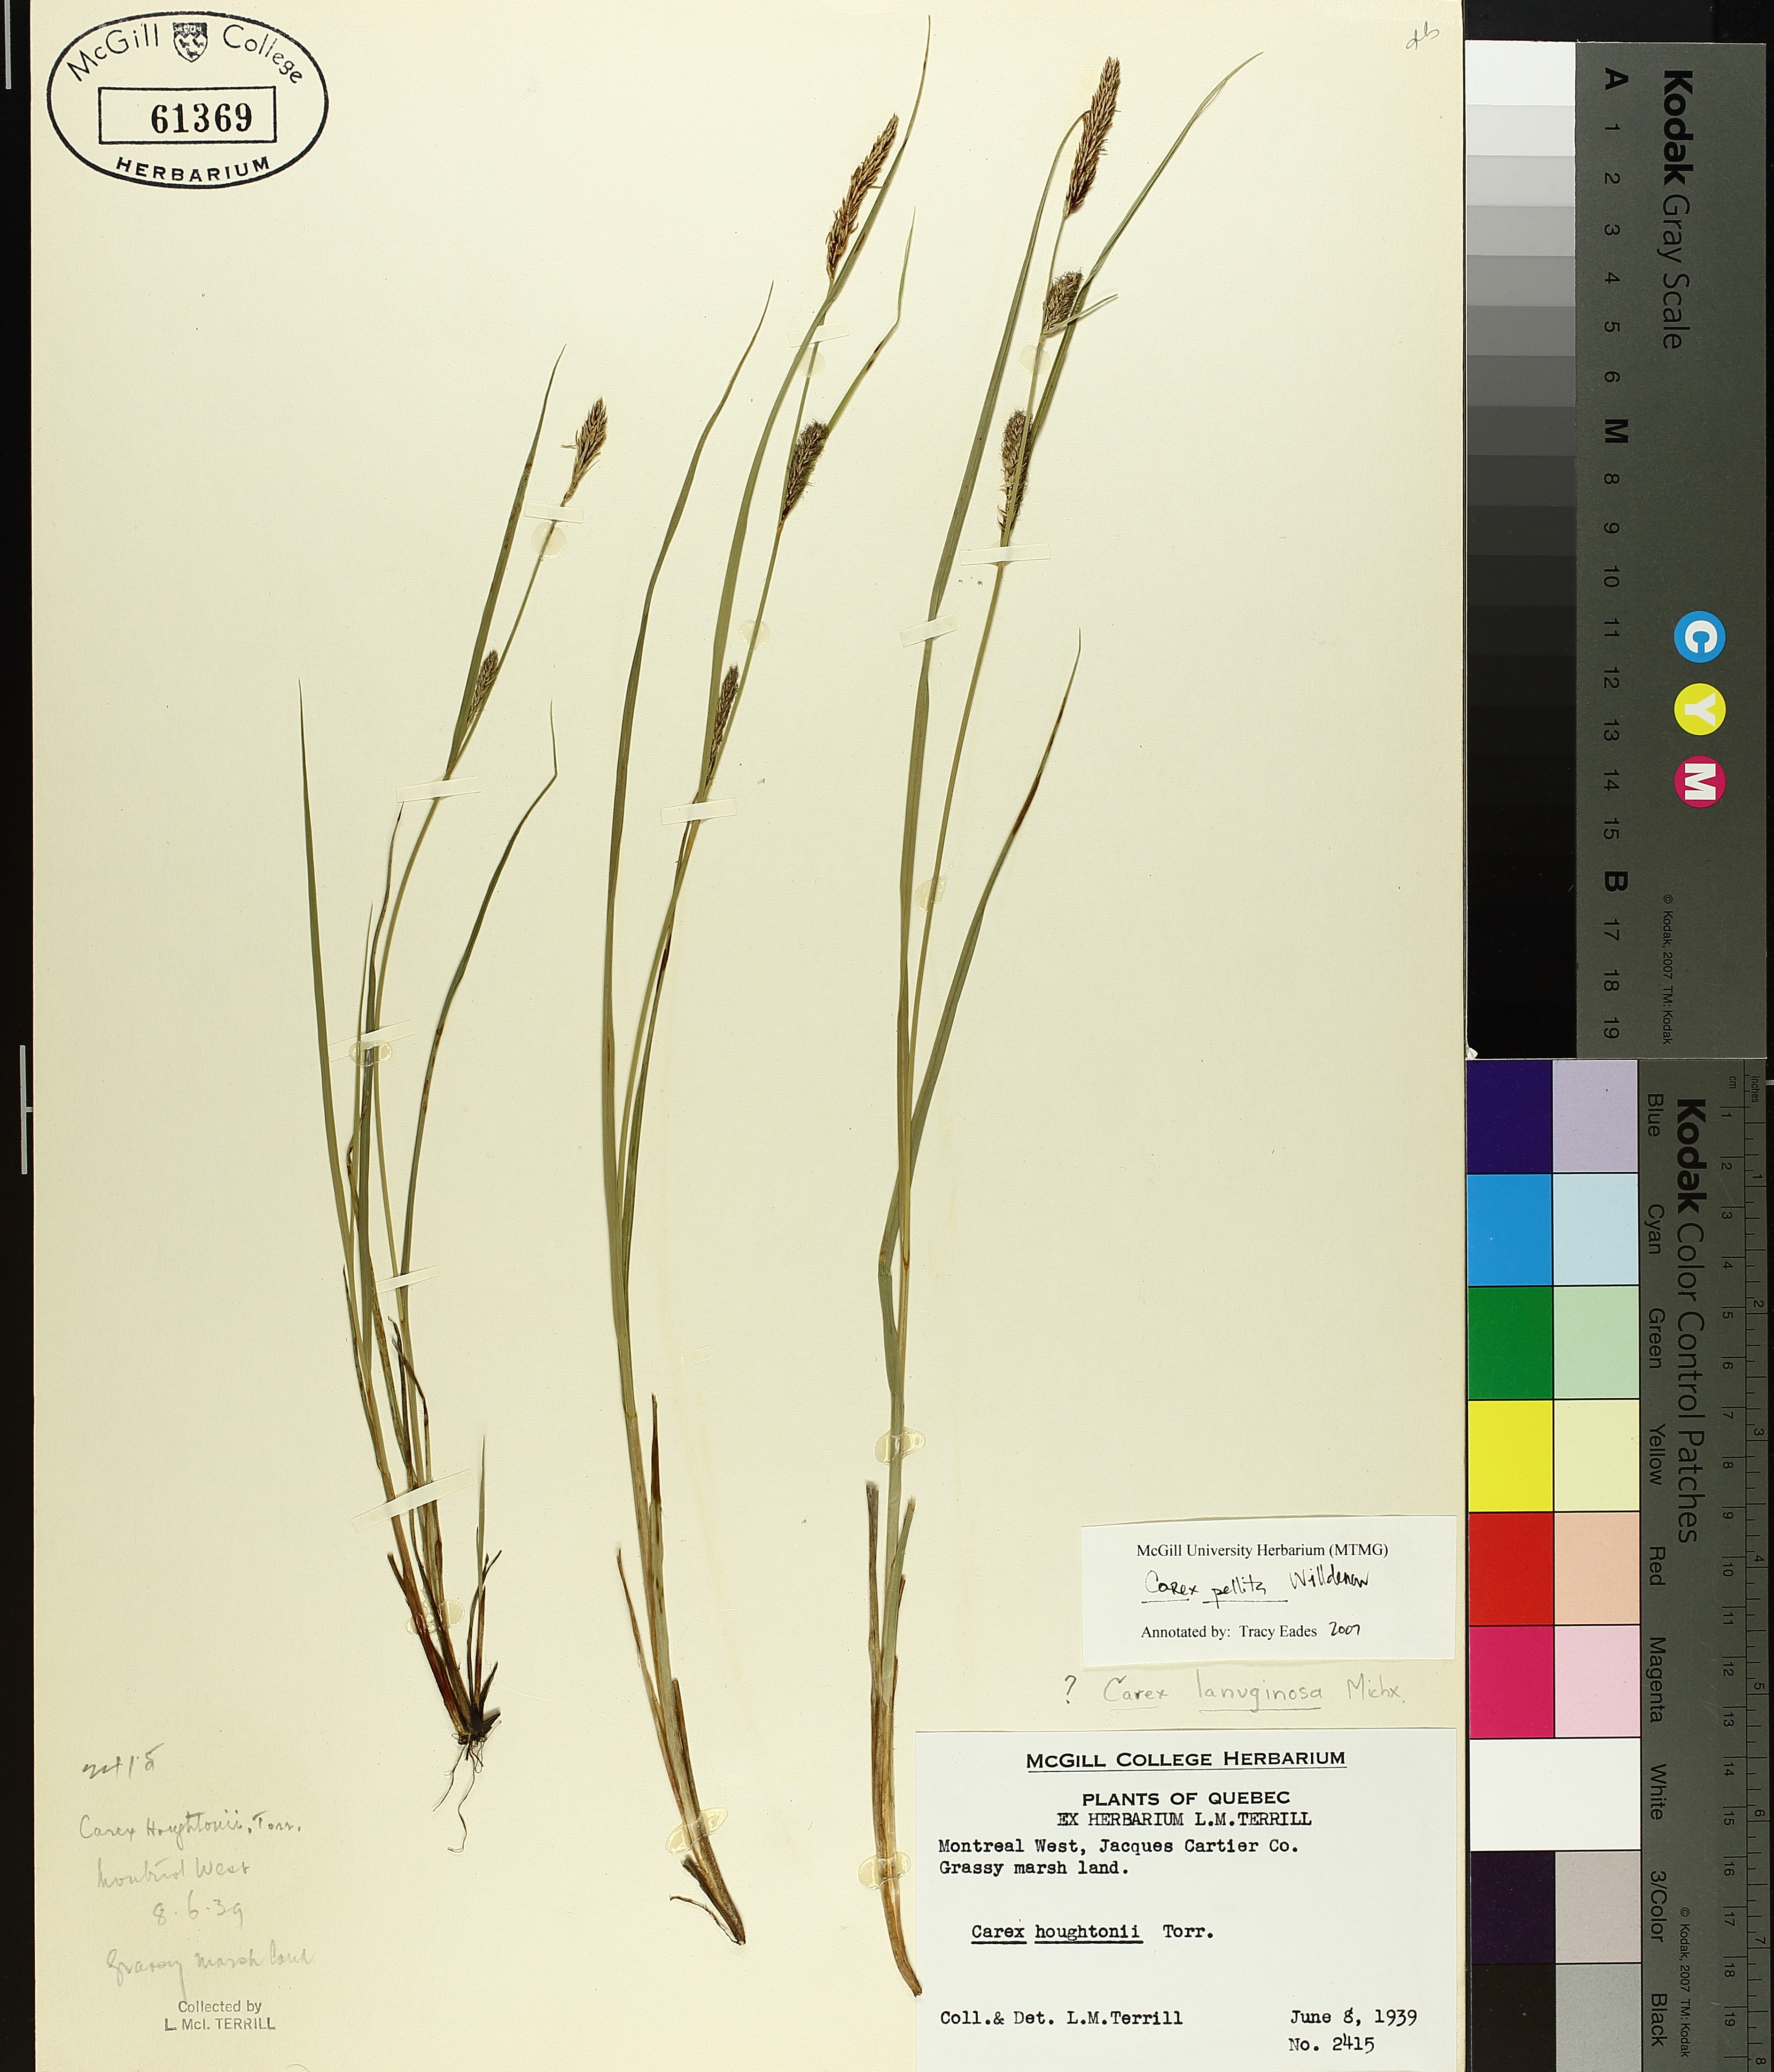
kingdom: Plantae
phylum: Tracheophyta
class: Liliopsida
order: Poales
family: Cyperaceae
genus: Carex
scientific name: Carex pellita
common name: Woolly sedge
